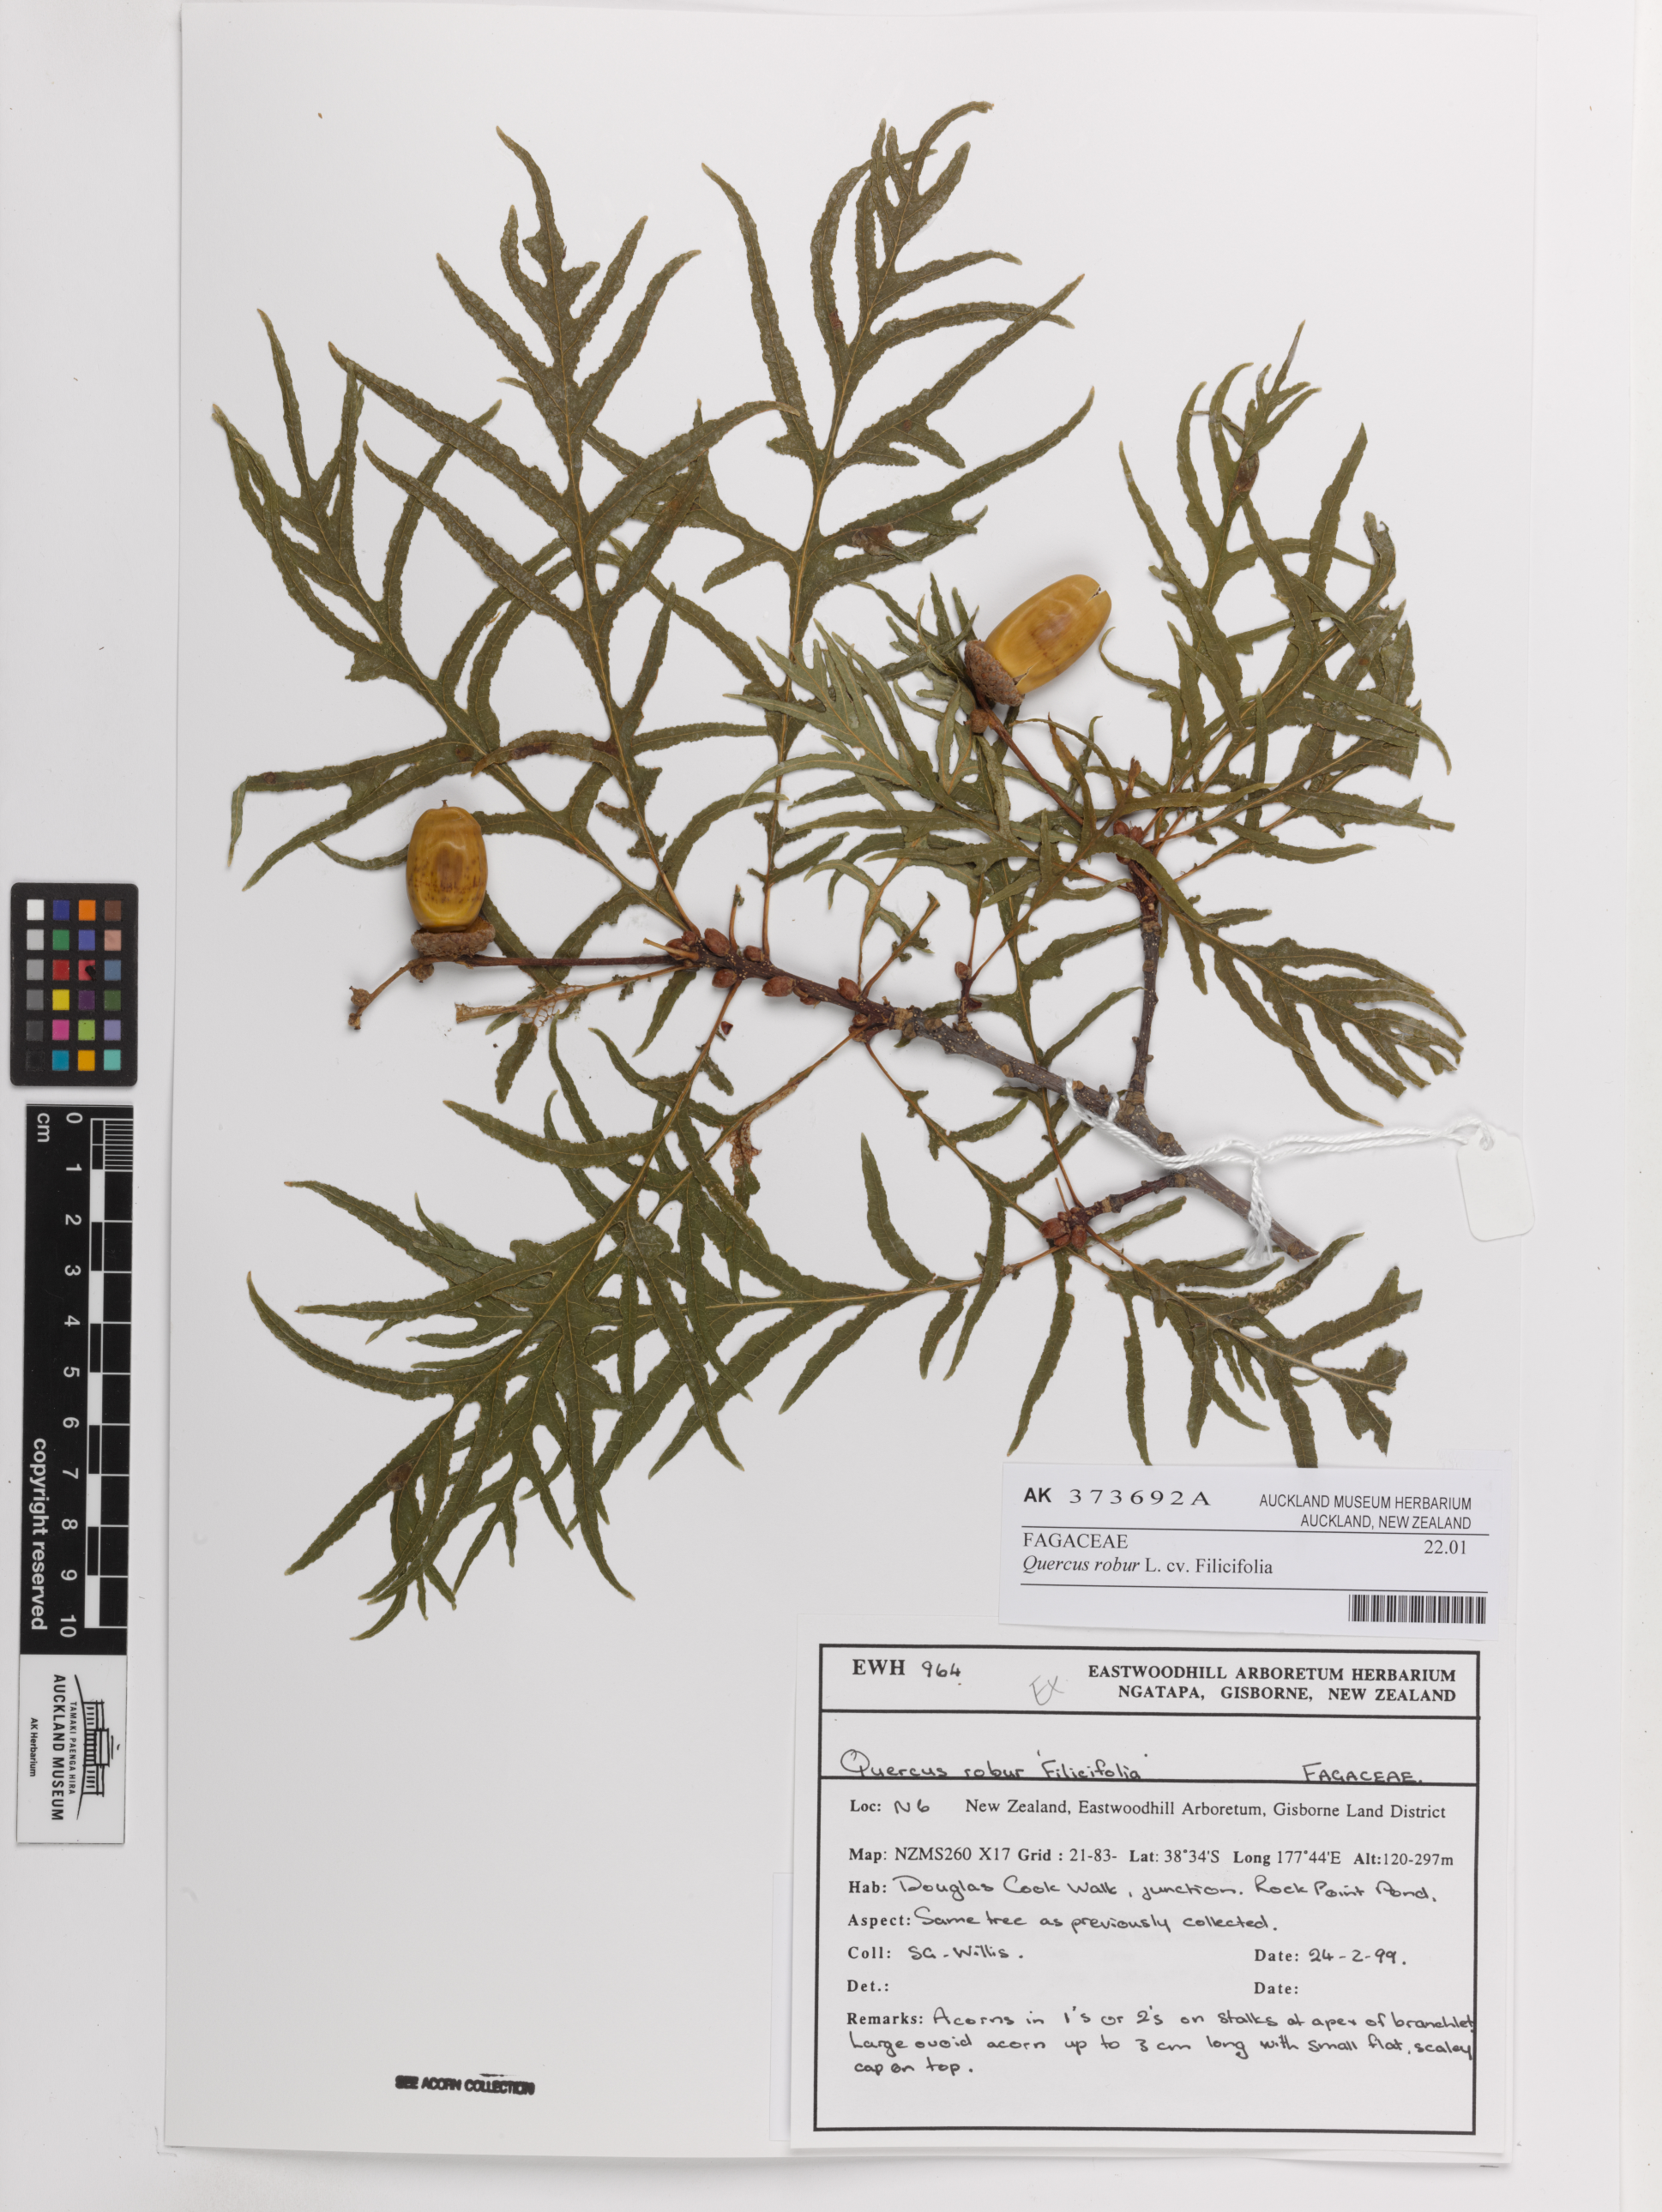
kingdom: Plantae
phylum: Tracheophyta
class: Magnoliopsida
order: Fagales
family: Fagaceae
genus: Quercus
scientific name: Quercus robur
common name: Pedunculate oak
